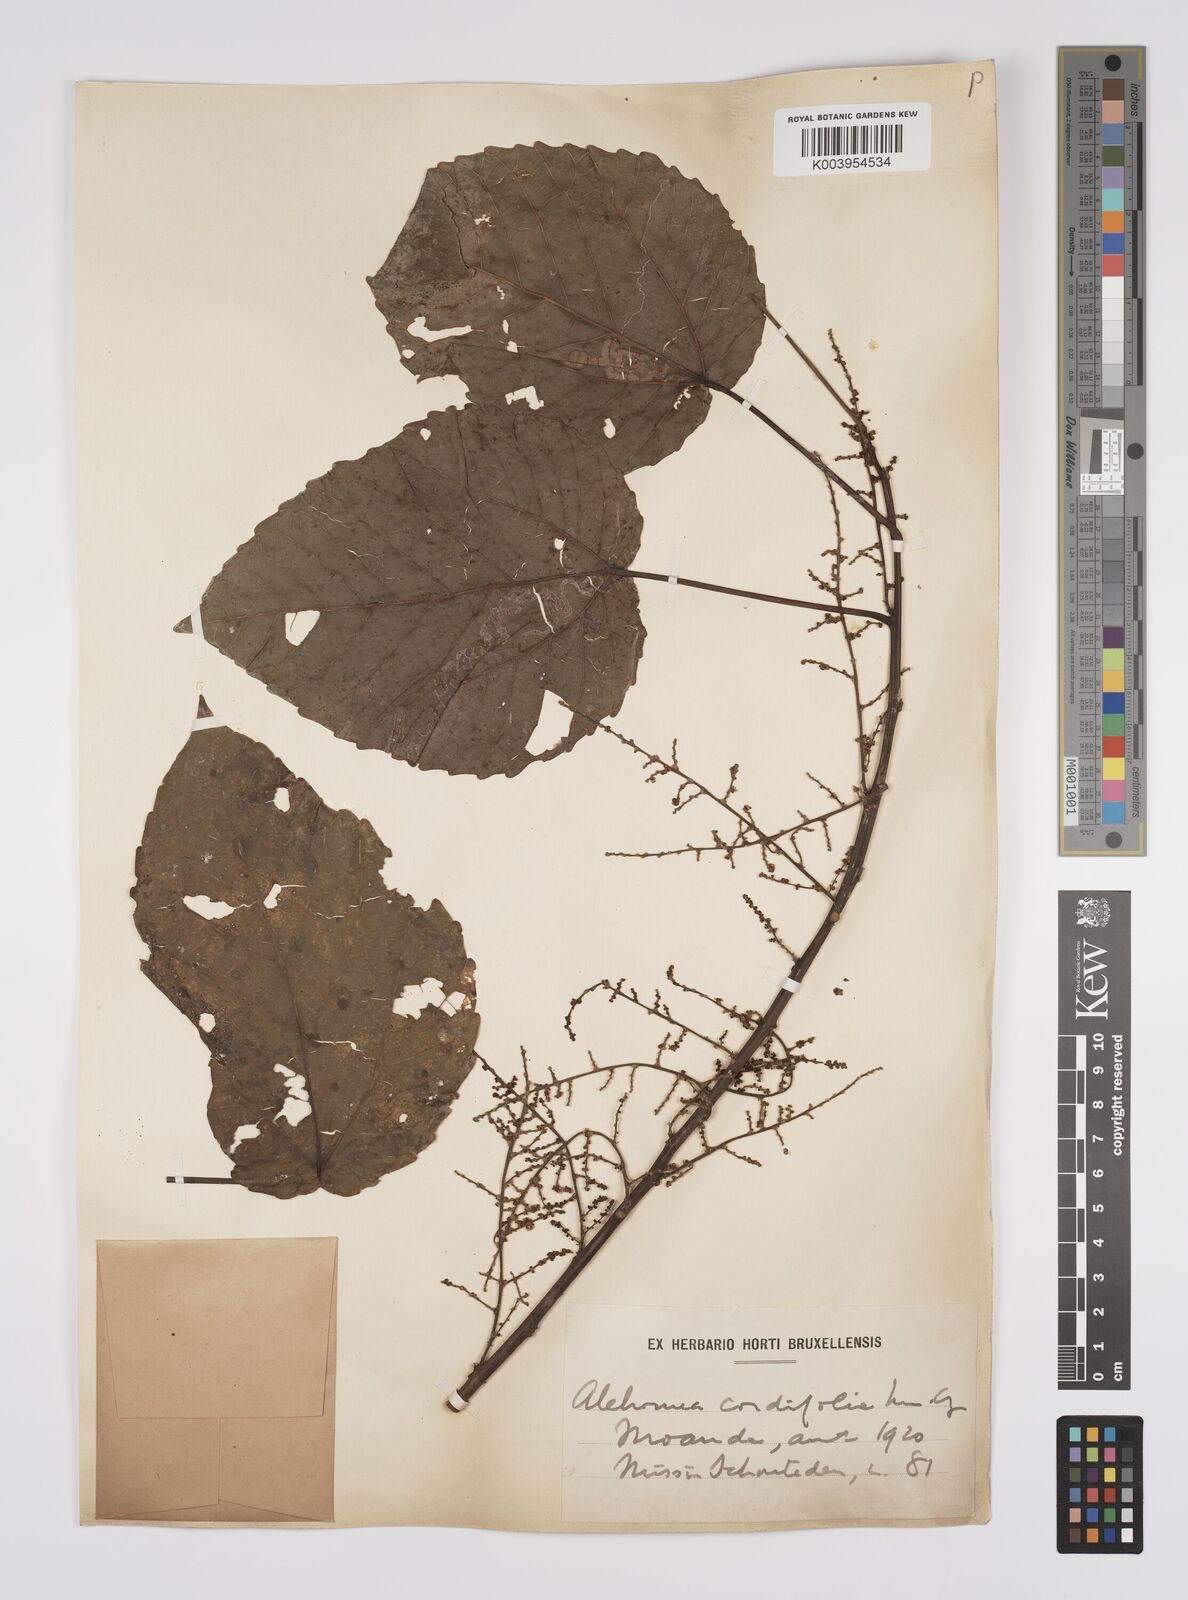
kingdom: Plantae
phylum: Tracheophyta
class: Magnoliopsida
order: Malpighiales
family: Euphorbiaceae
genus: Alchornea
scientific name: Alchornea cordifolia
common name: Christmasbush
